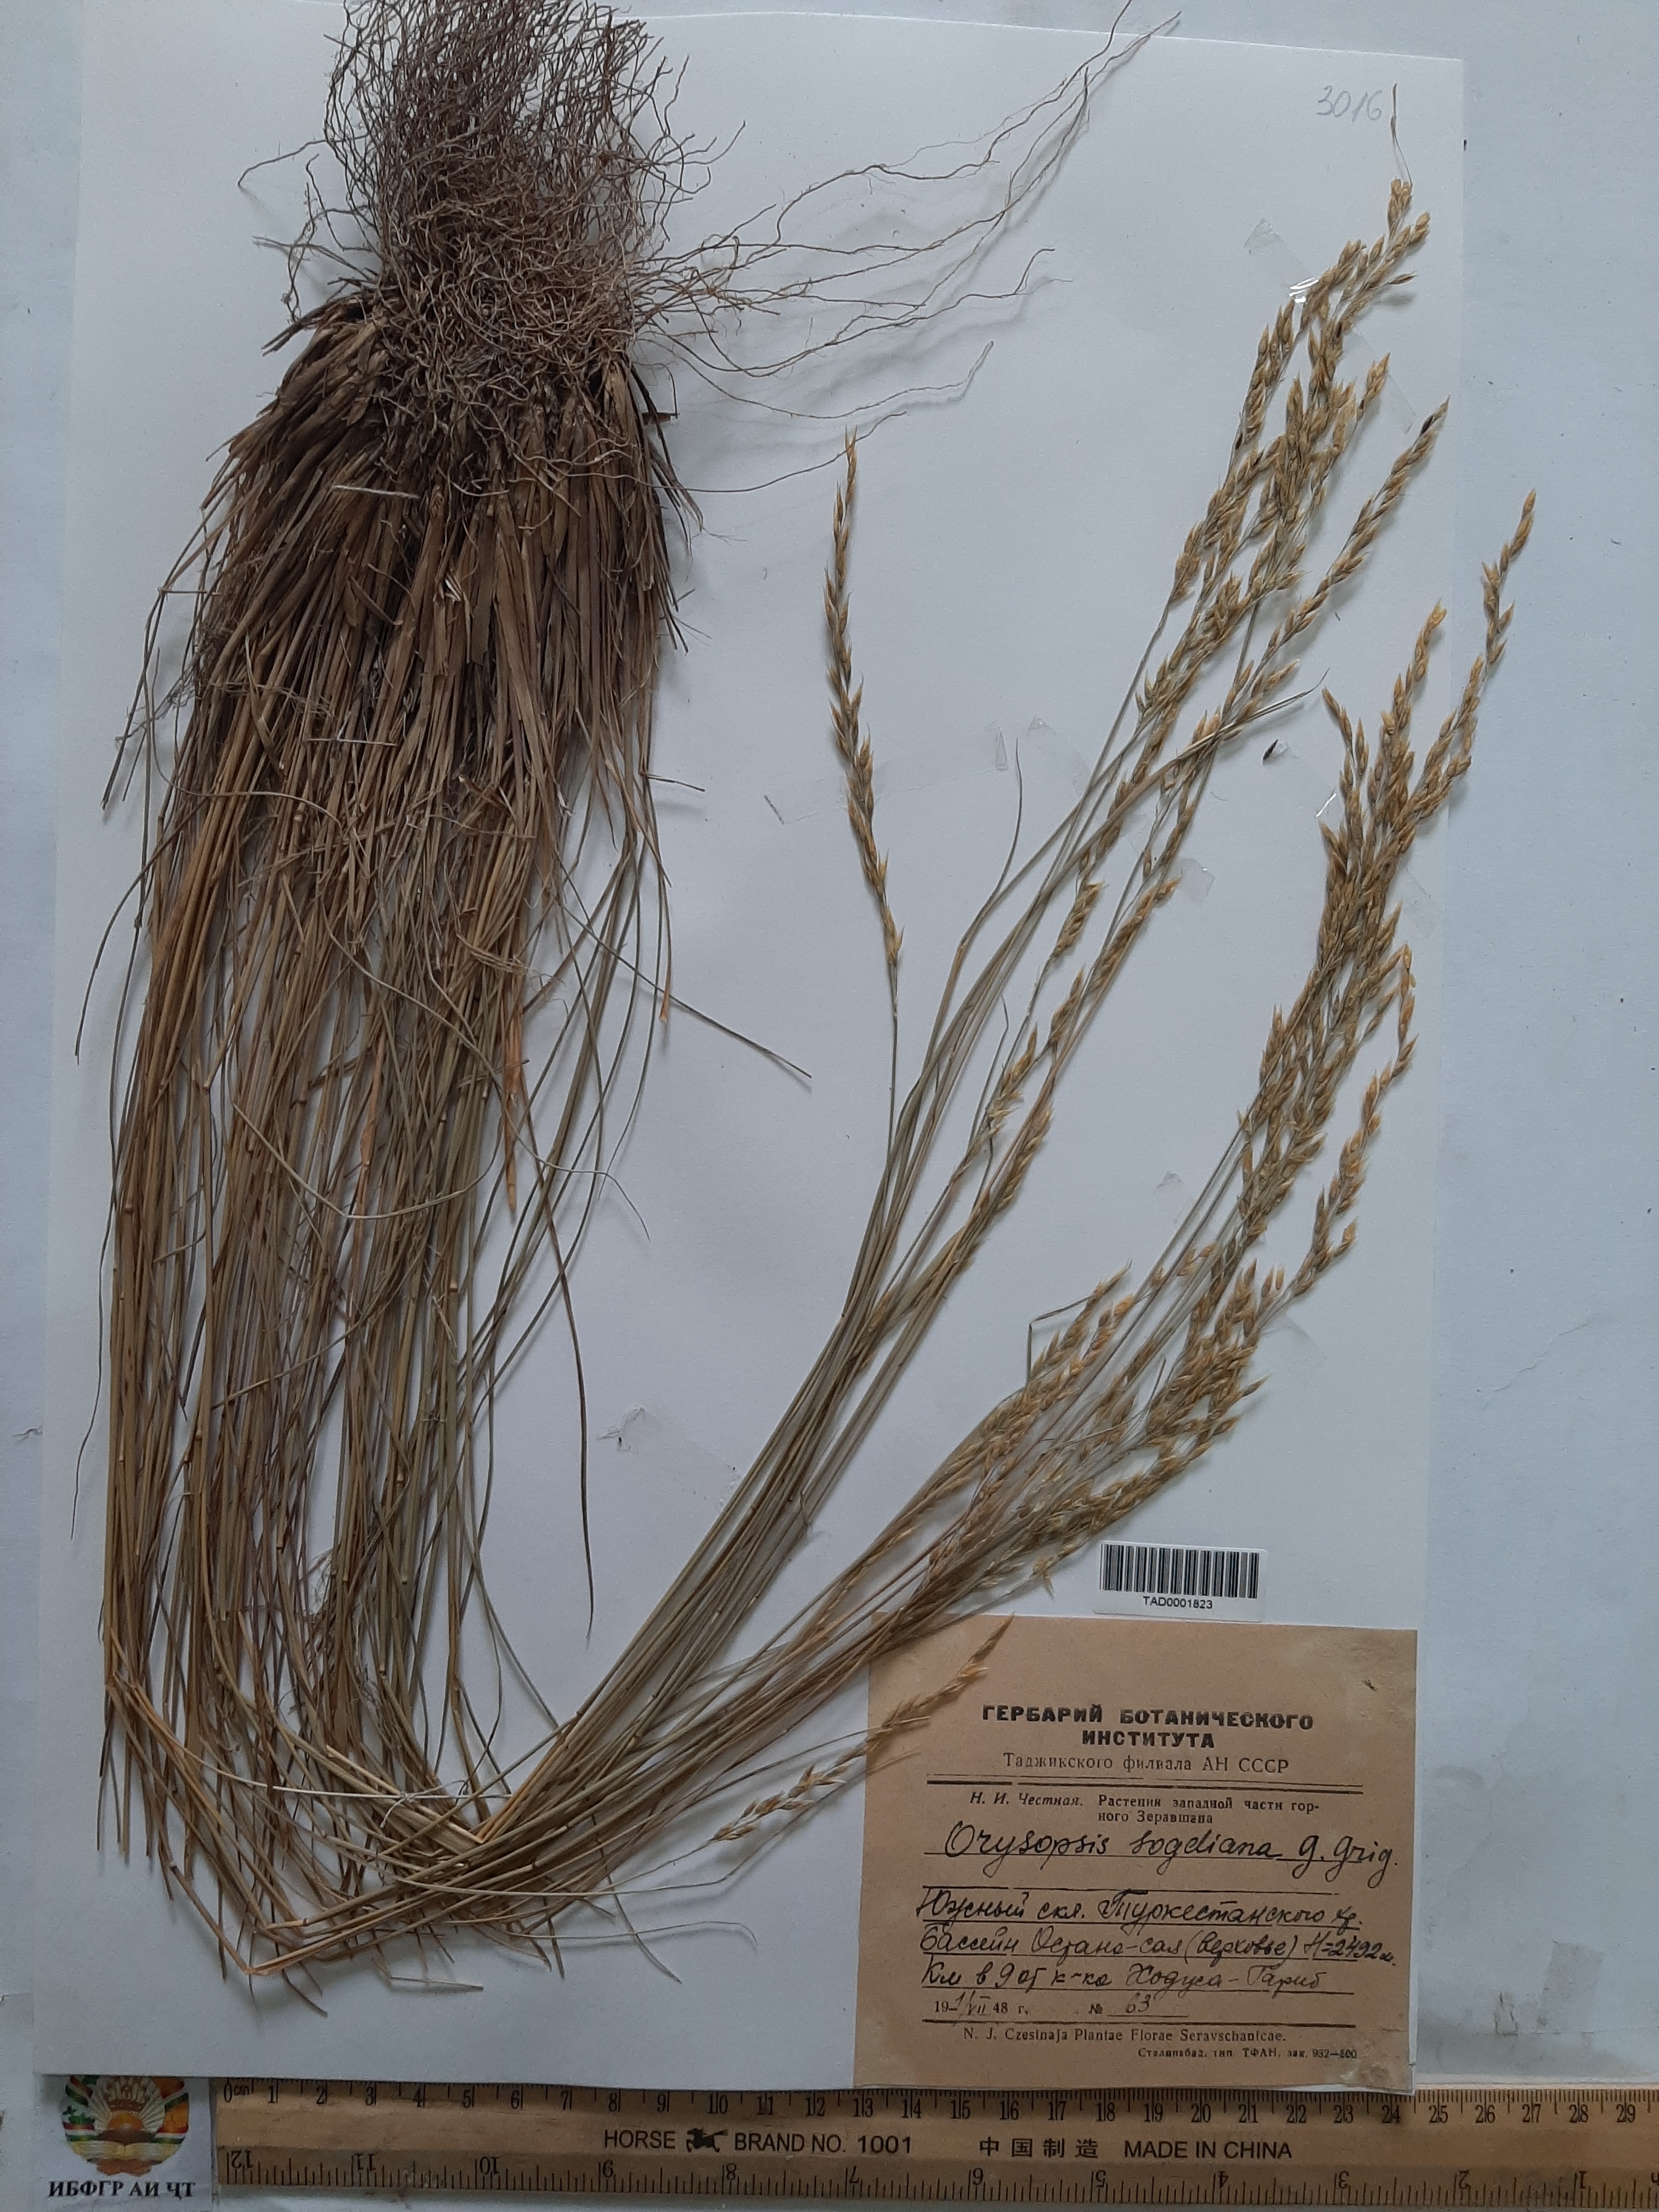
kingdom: Plantae
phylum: Tracheophyta
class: Liliopsida
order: Poales
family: Poaceae
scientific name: Poaceae
